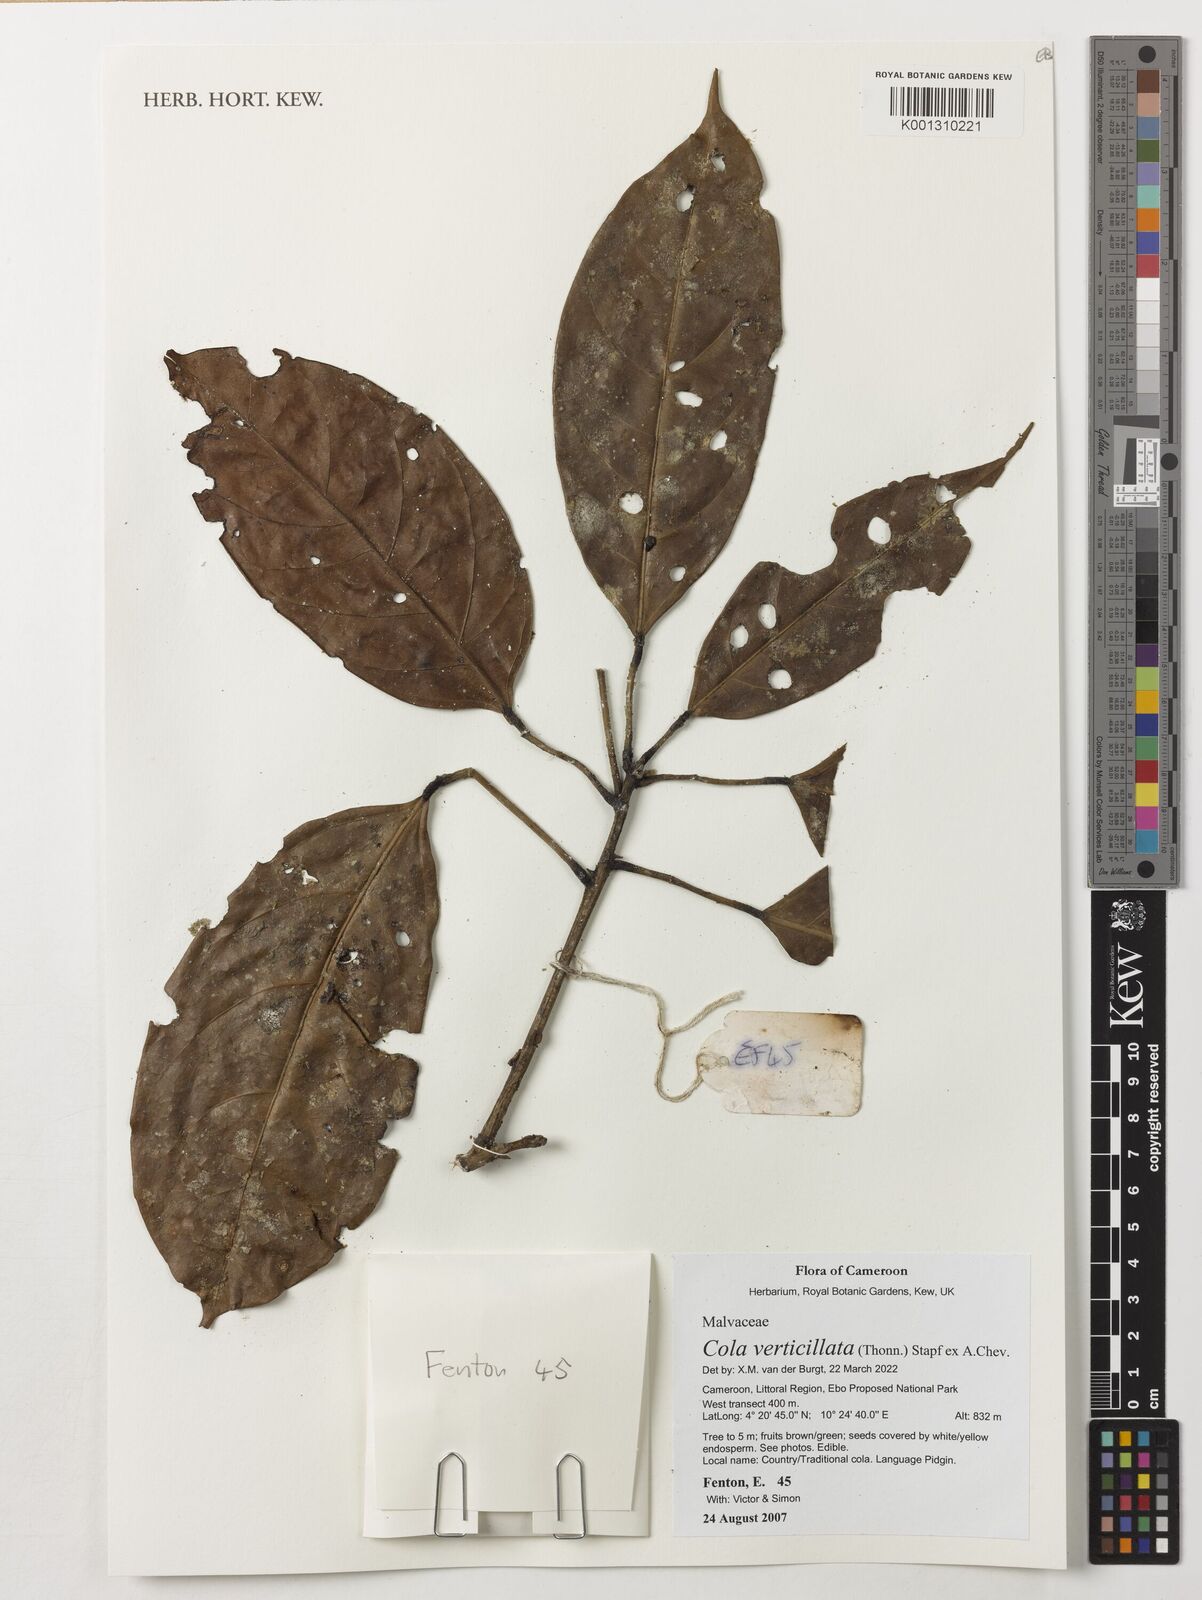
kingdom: Plantae
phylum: Tracheophyta
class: Magnoliopsida
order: Malvales
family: Malvaceae
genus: Cola
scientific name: Cola verticillata
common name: Owé cola
